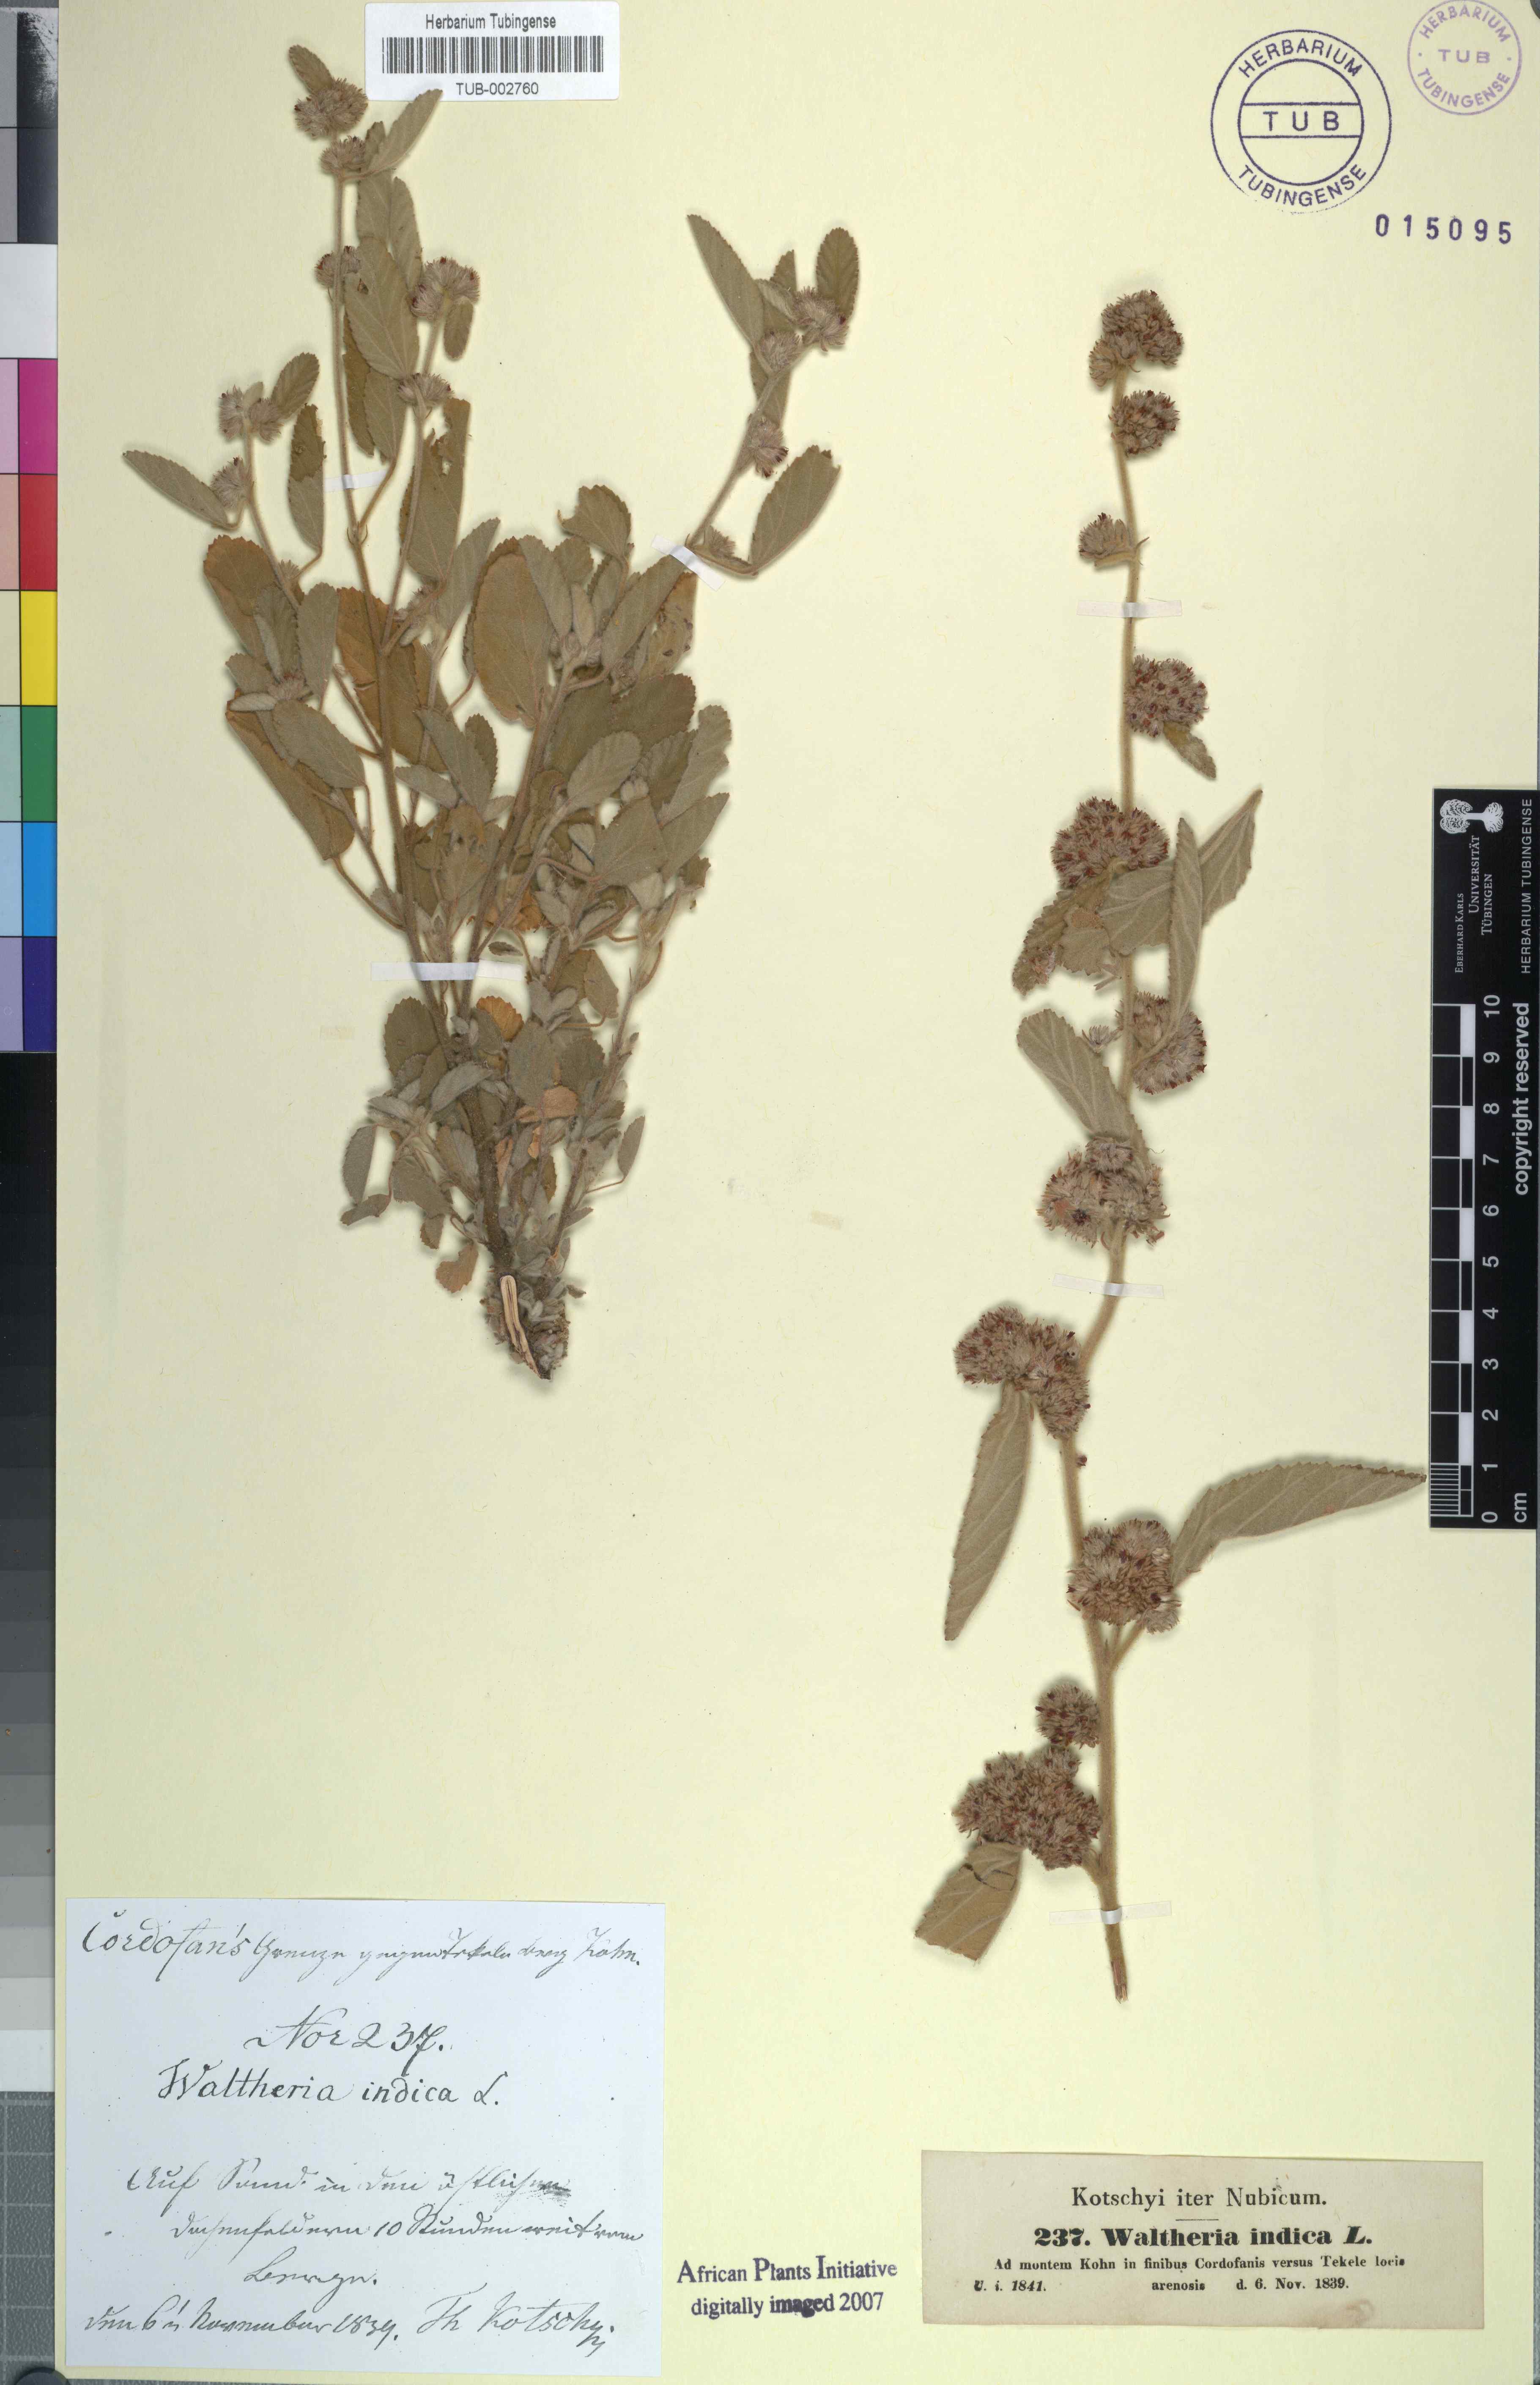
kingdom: Plantae
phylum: Tracheophyta
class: Magnoliopsida
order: Malvales
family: Malvaceae
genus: Waltheria
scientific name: Waltheria indica
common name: Leather-coat
